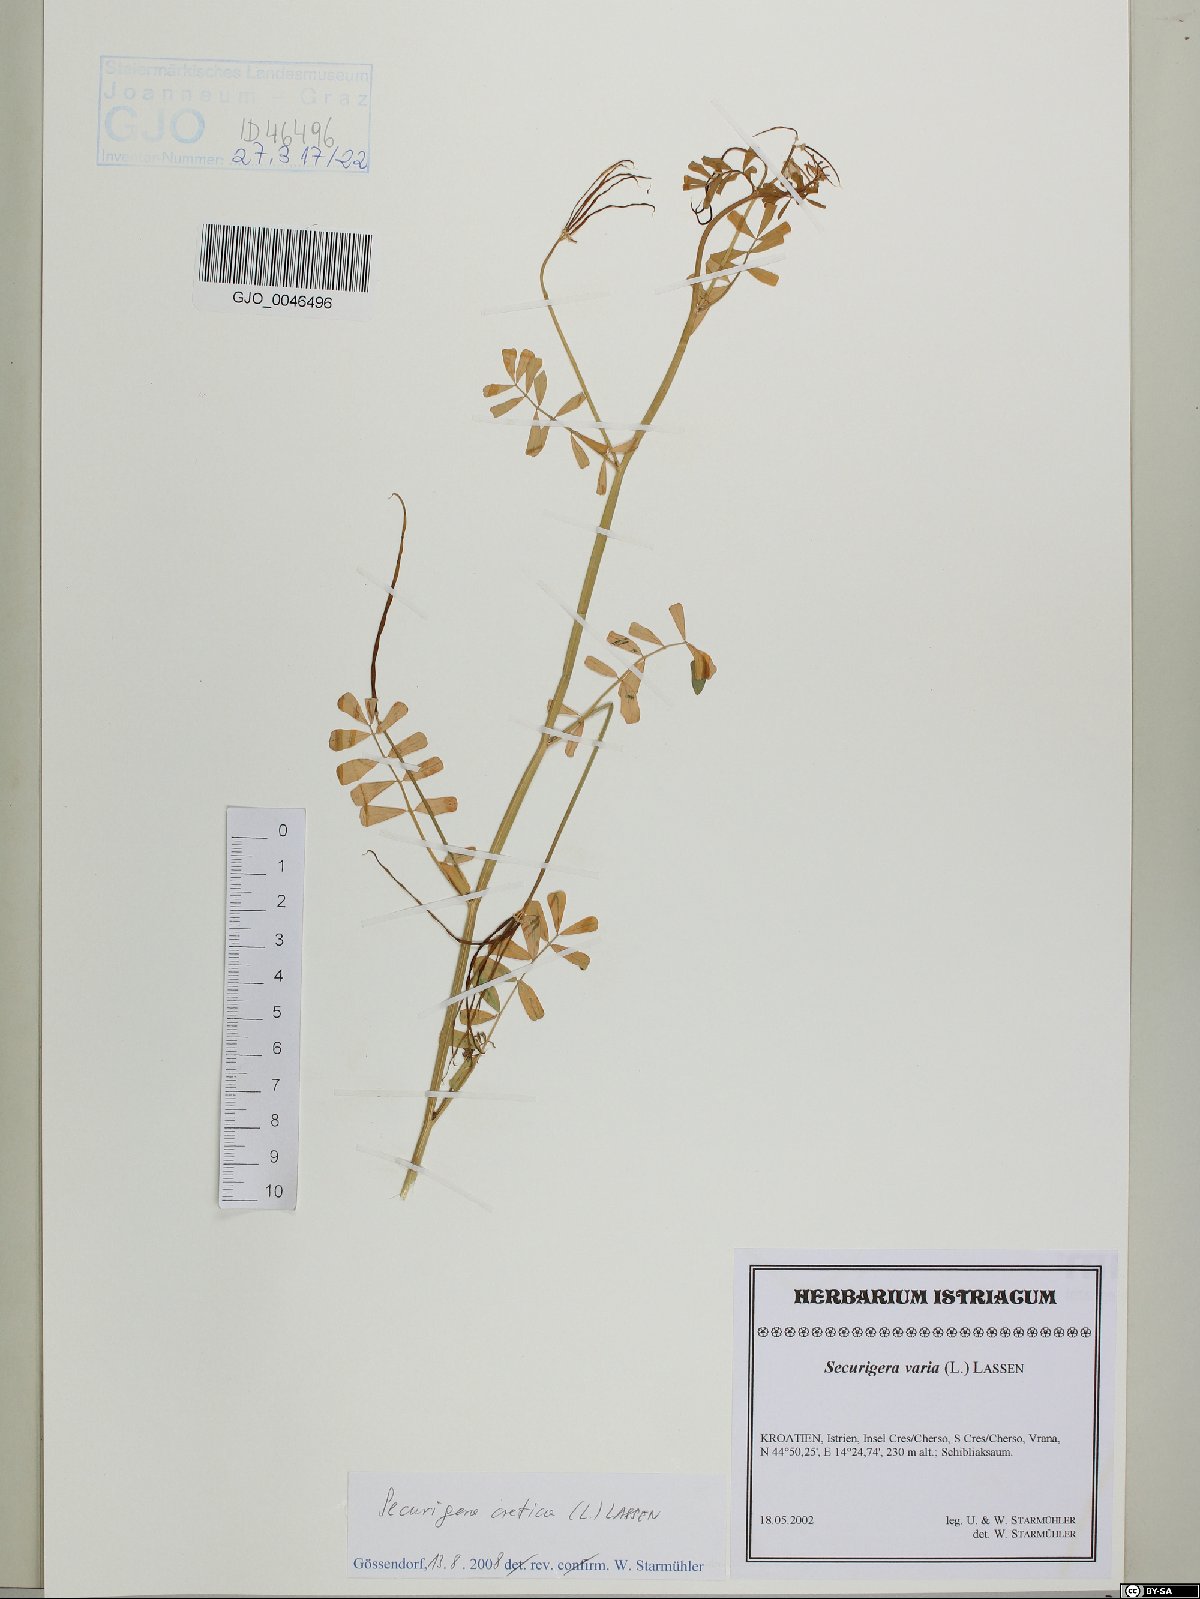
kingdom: Plantae
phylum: Tracheophyta
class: Magnoliopsida
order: Fabales
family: Fabaceae
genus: Coronilla
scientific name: Coronilla cretica
